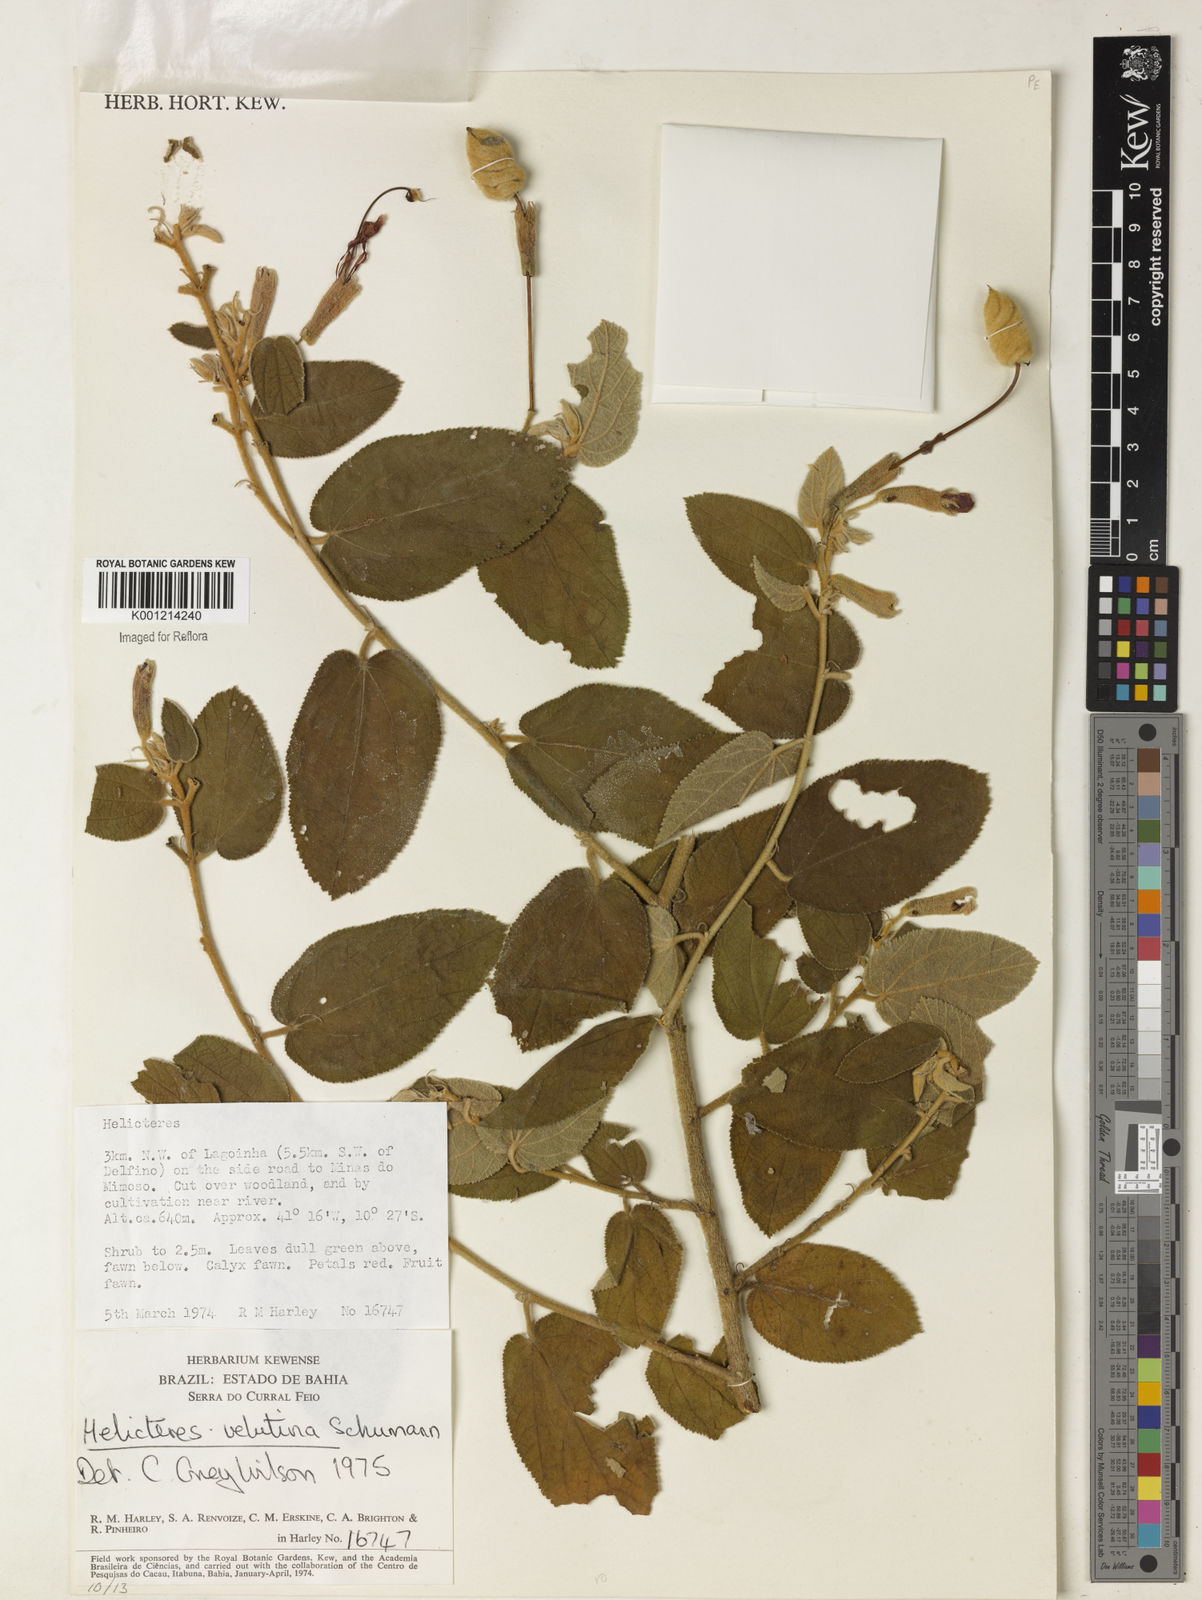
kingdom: Plantae
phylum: Tracheophyta
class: Magnoliopsida
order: Malvales
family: Malvaceae
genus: Helicteres
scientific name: Helicteres velutina
